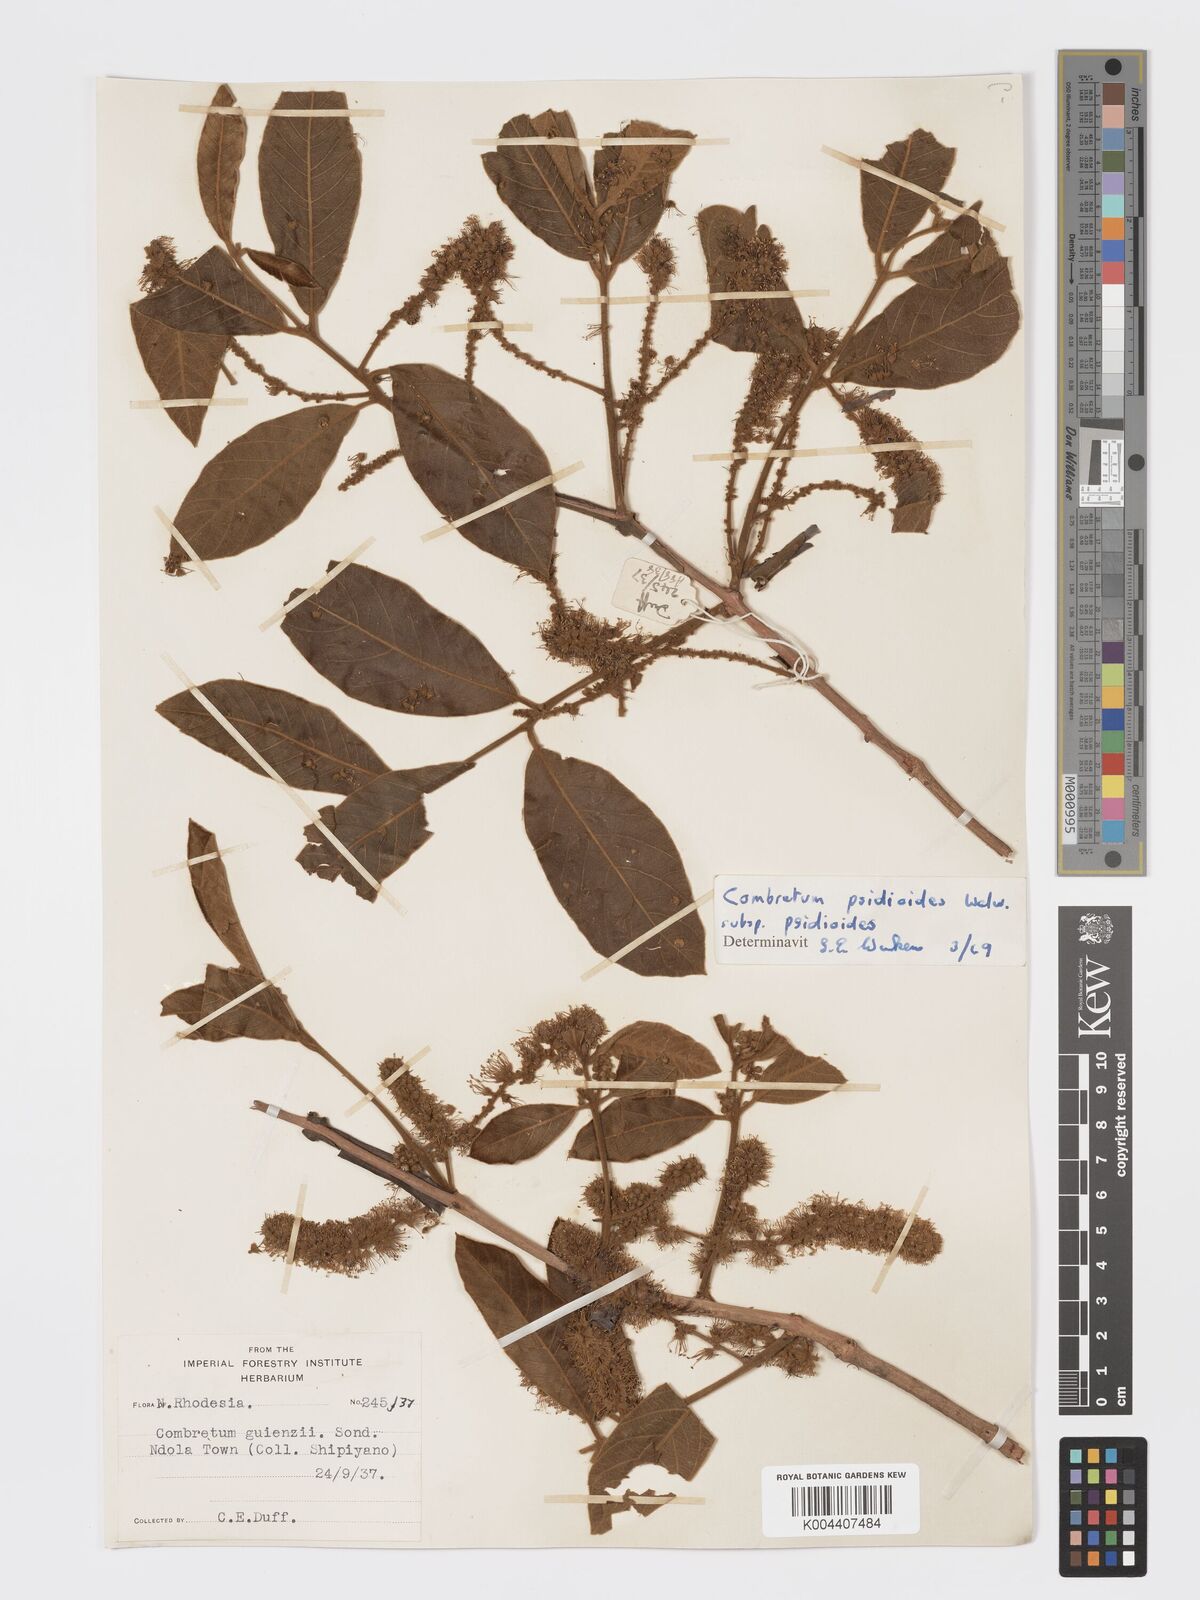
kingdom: Plantae
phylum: Tracheophyta
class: Magnoliopsida
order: Myrtales
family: Combretaceae
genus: Combretum
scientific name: Combretum psidioides
